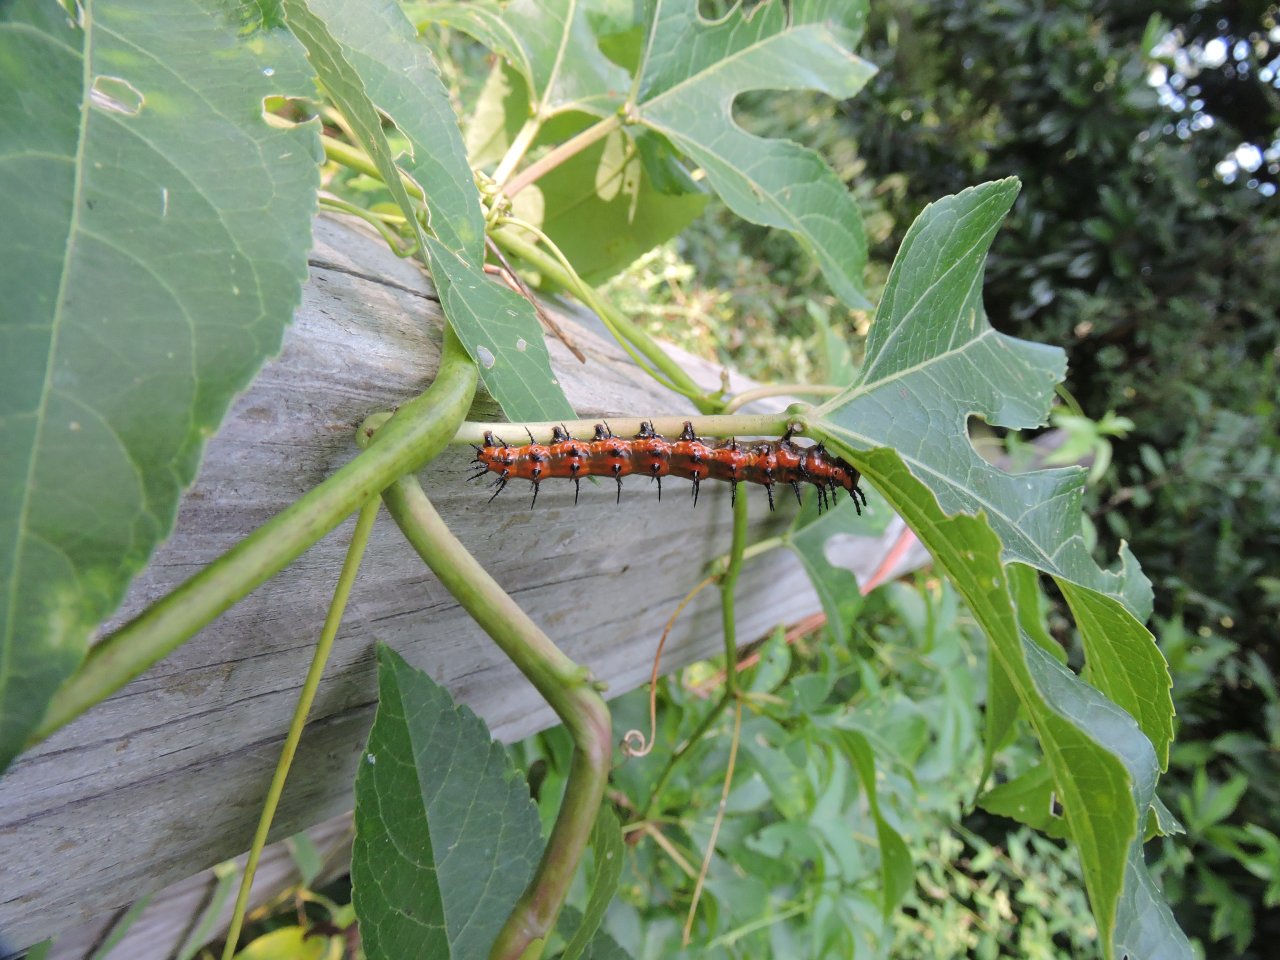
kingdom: Animalia
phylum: Arthropoda
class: Insecta
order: Lepidoptera
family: Nymphalidae
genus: Dione
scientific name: Dione vanillae
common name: Gulf Fritillary
